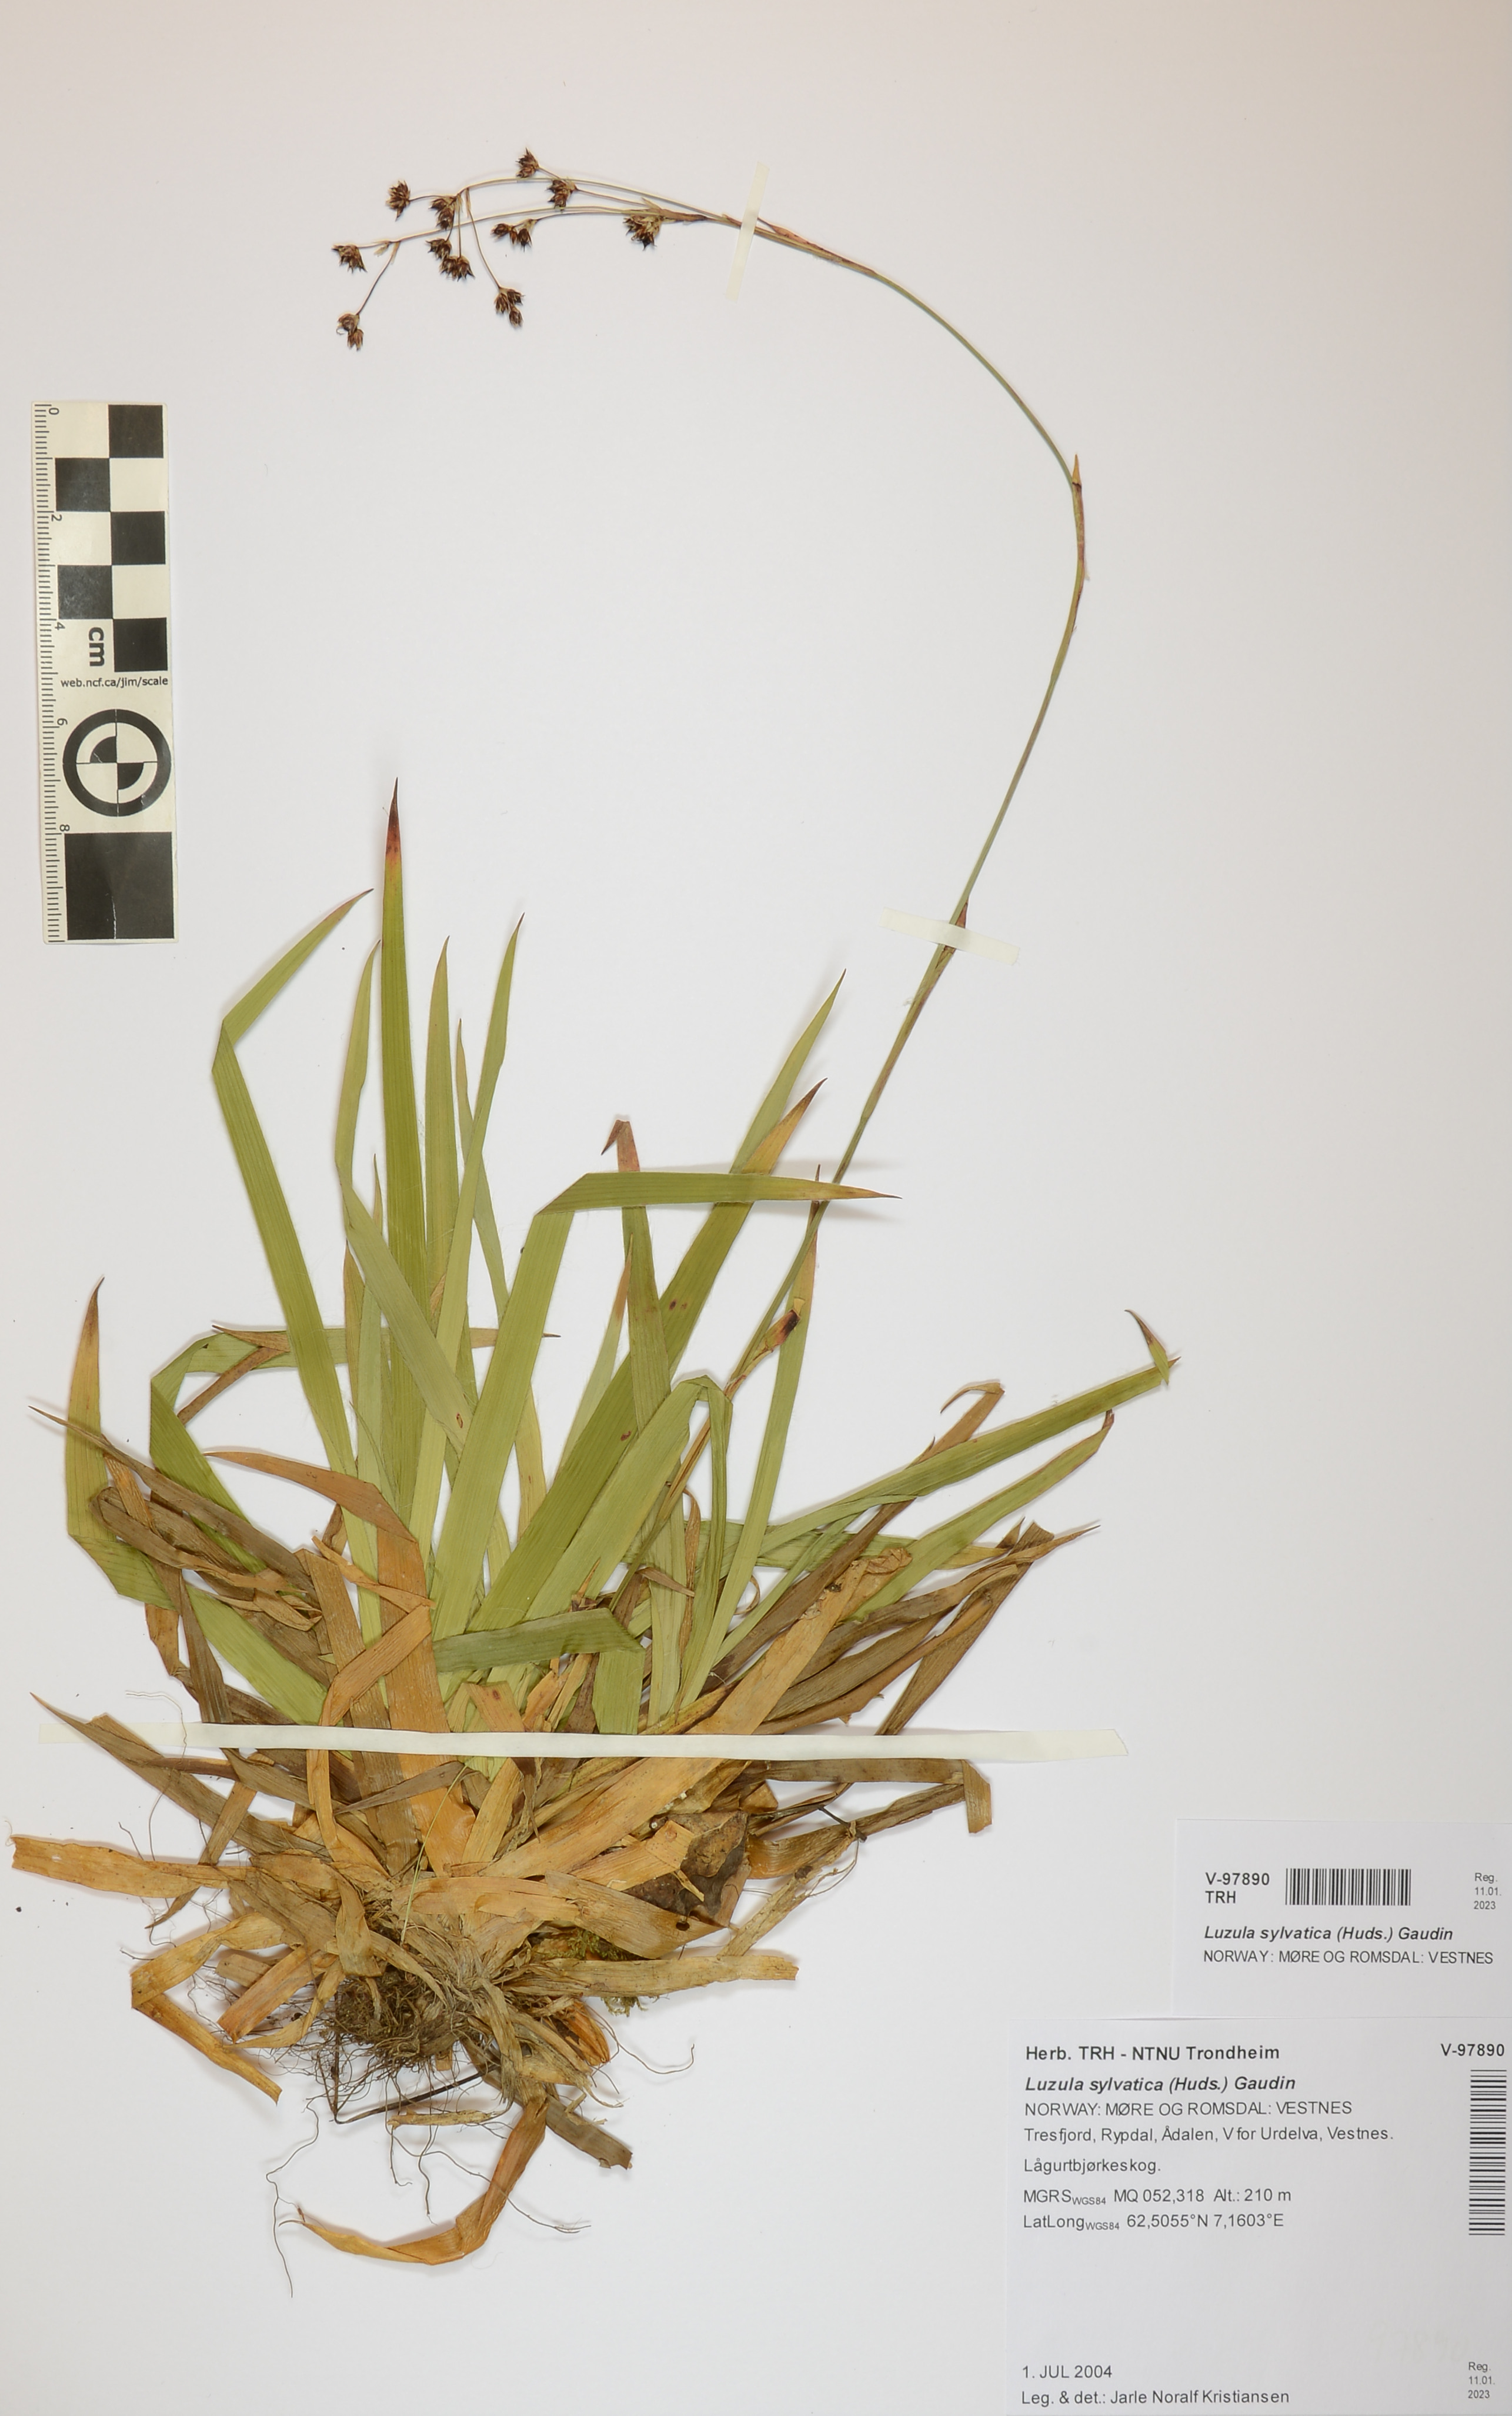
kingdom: Plantae
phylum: Tracheophyta
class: Liliopsida
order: Poales
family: Juncaceae
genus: Luzula
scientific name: Luzula sylvatica
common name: Great wood-rush
